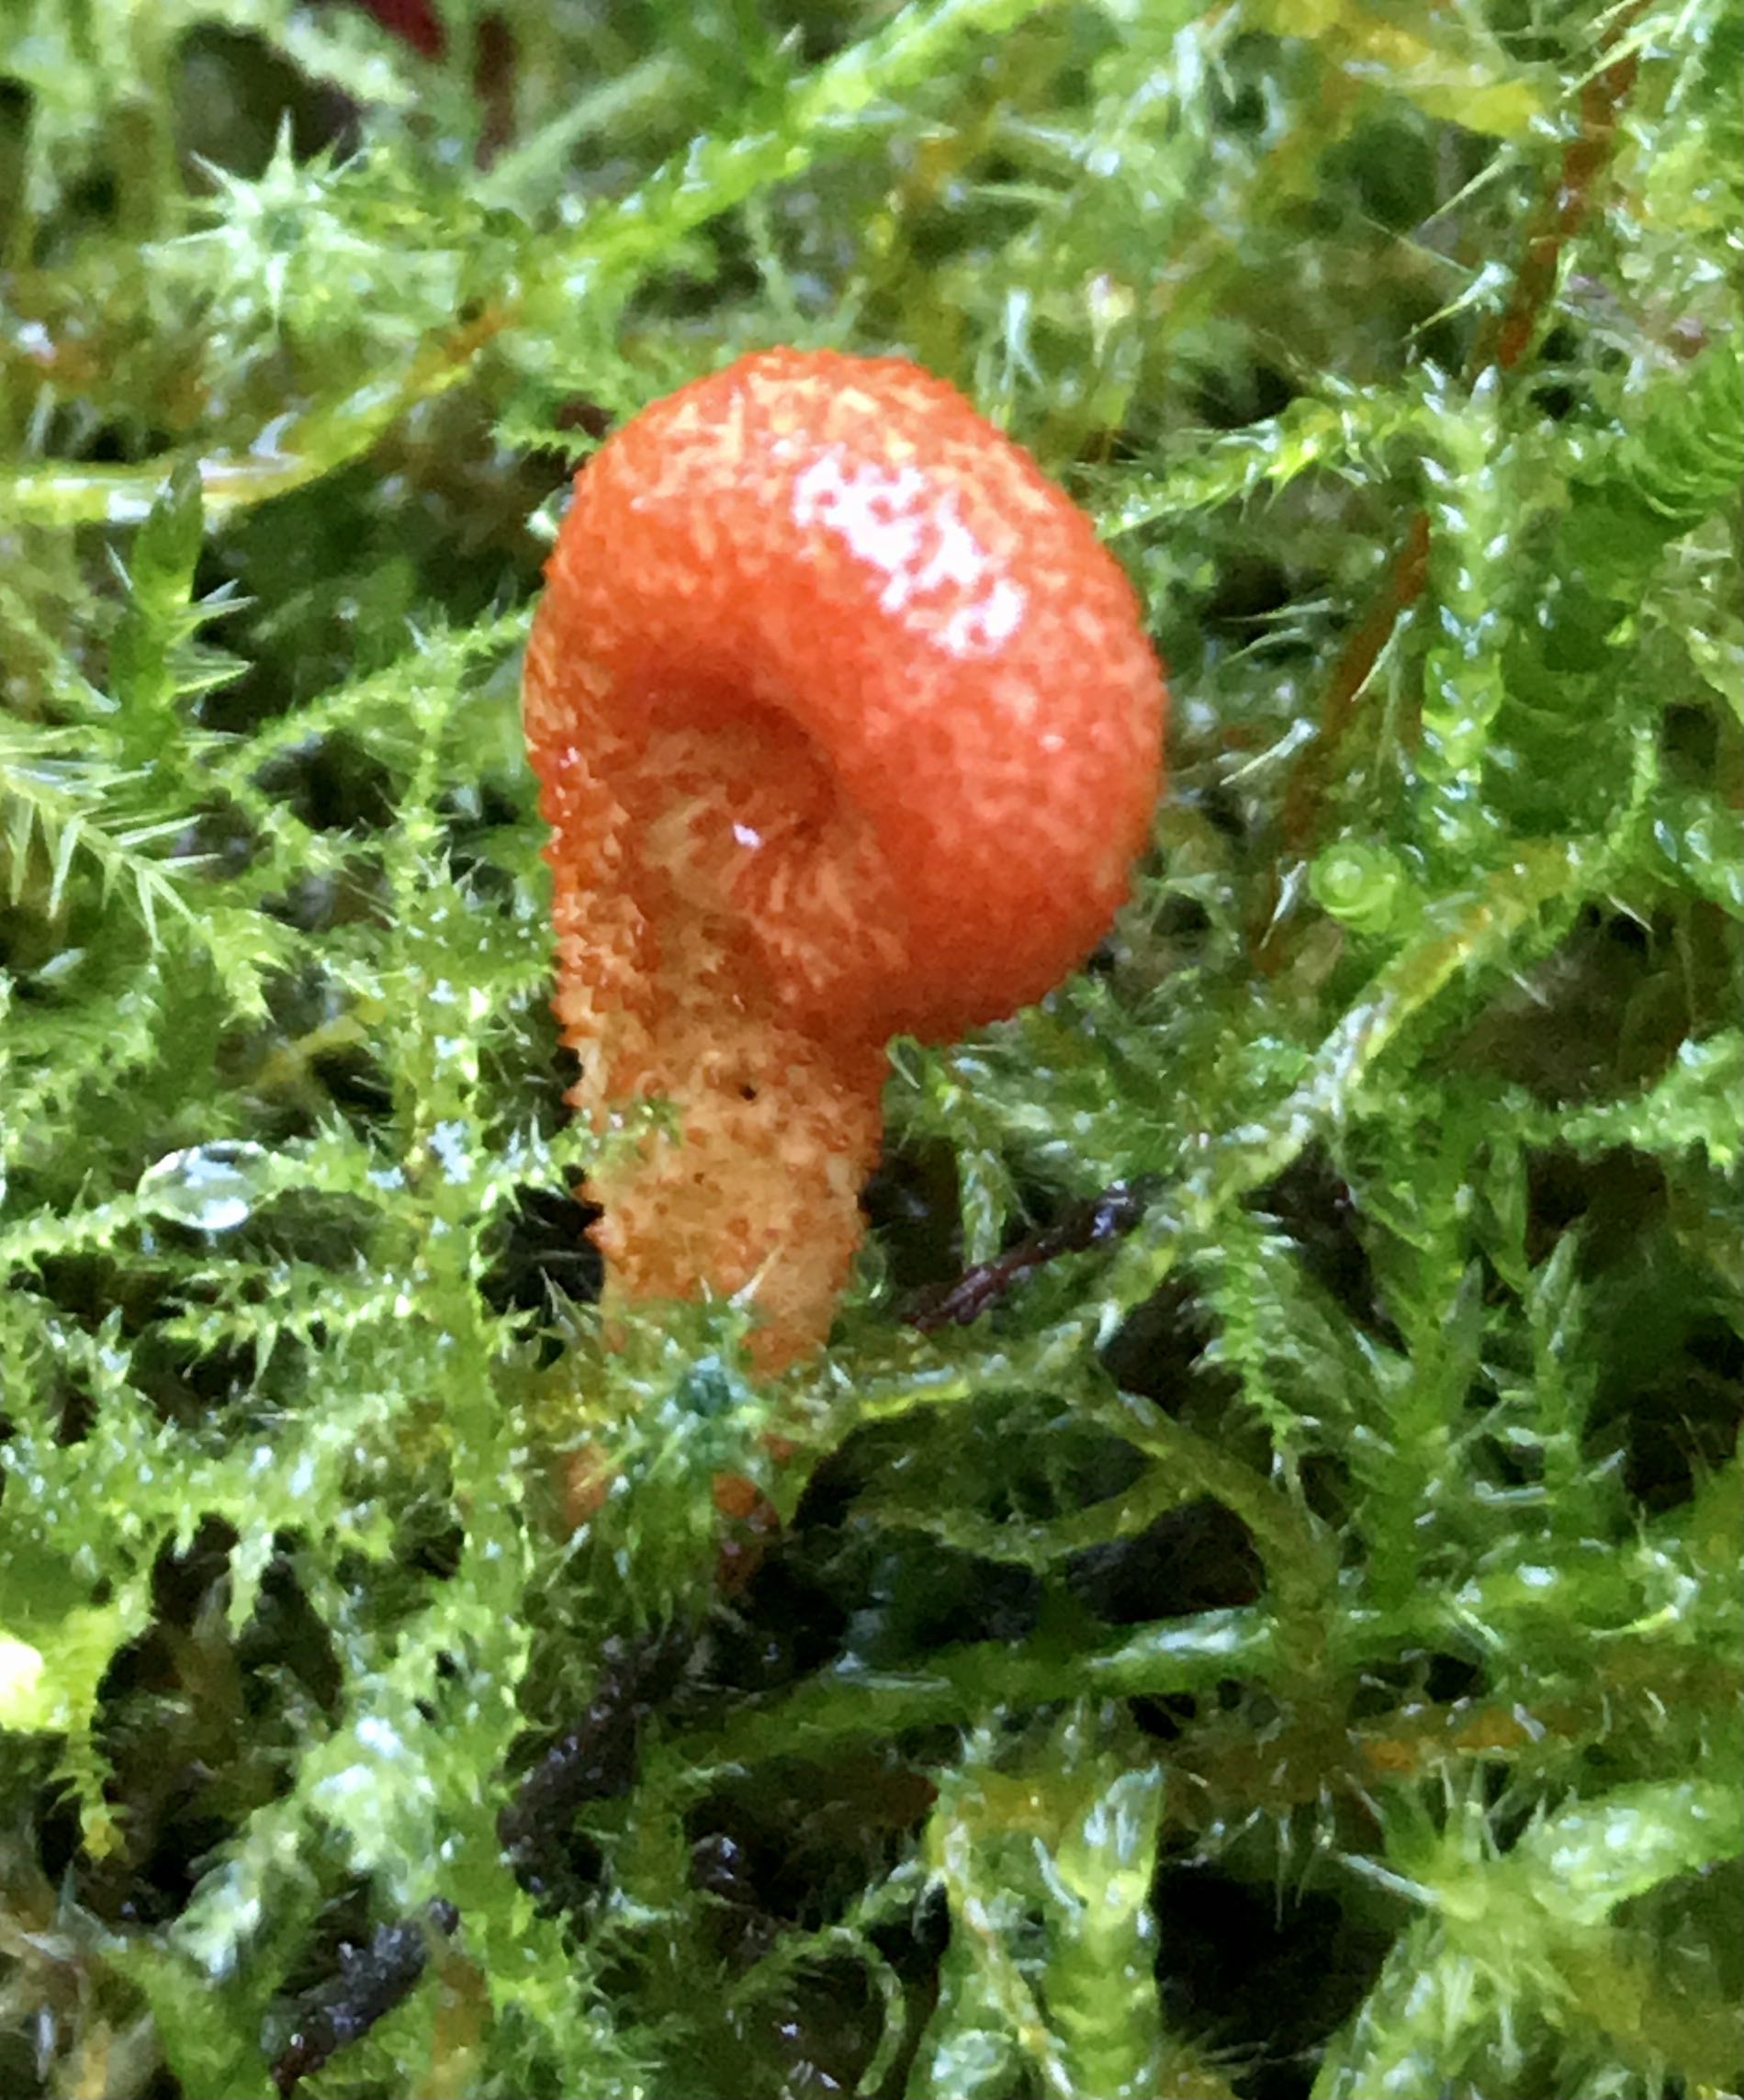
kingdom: Fungi
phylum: Ascomycota
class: Sordariomycetes
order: Hypocreales
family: Cordycipitaceae
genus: Cordyceps
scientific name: Cordyceps militaris
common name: puppe-snyltekølle
